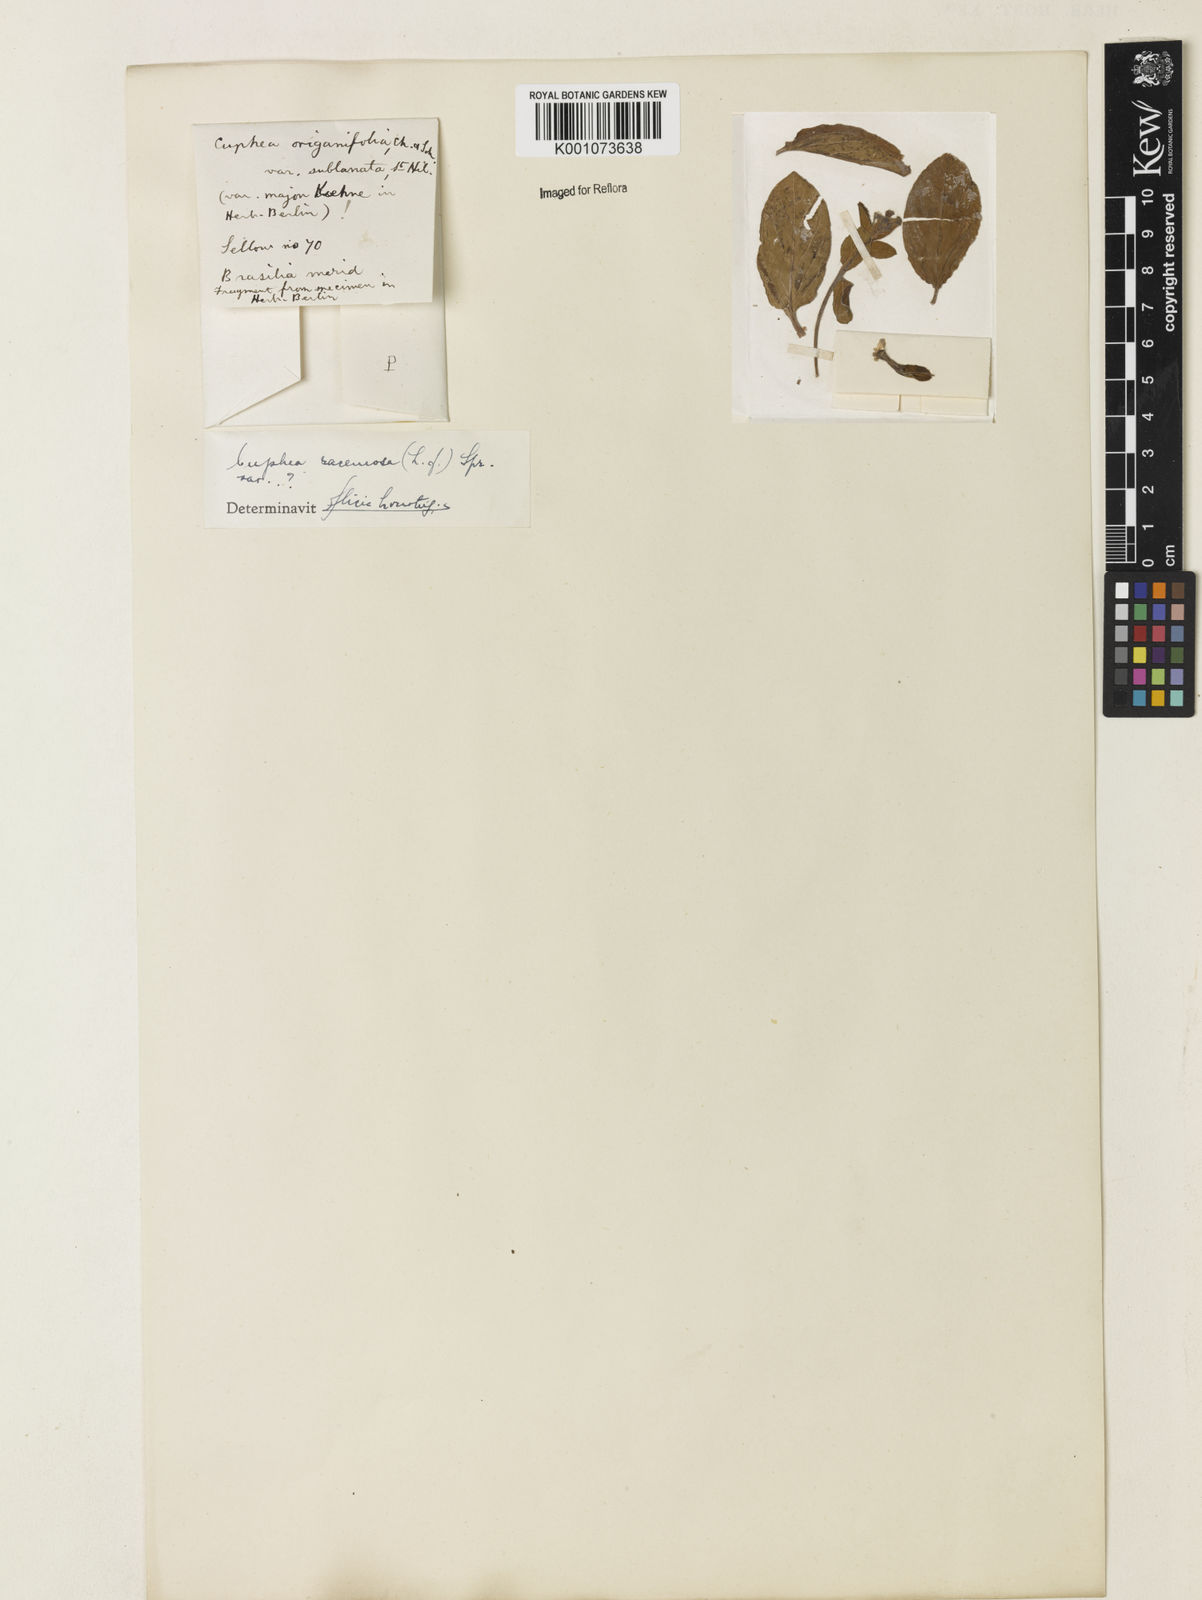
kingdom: Plantae
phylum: Tracheophyta
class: Magnoliopsida
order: Myrtales
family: Lythraceae
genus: Cuphea
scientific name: Cuphea racemosa
